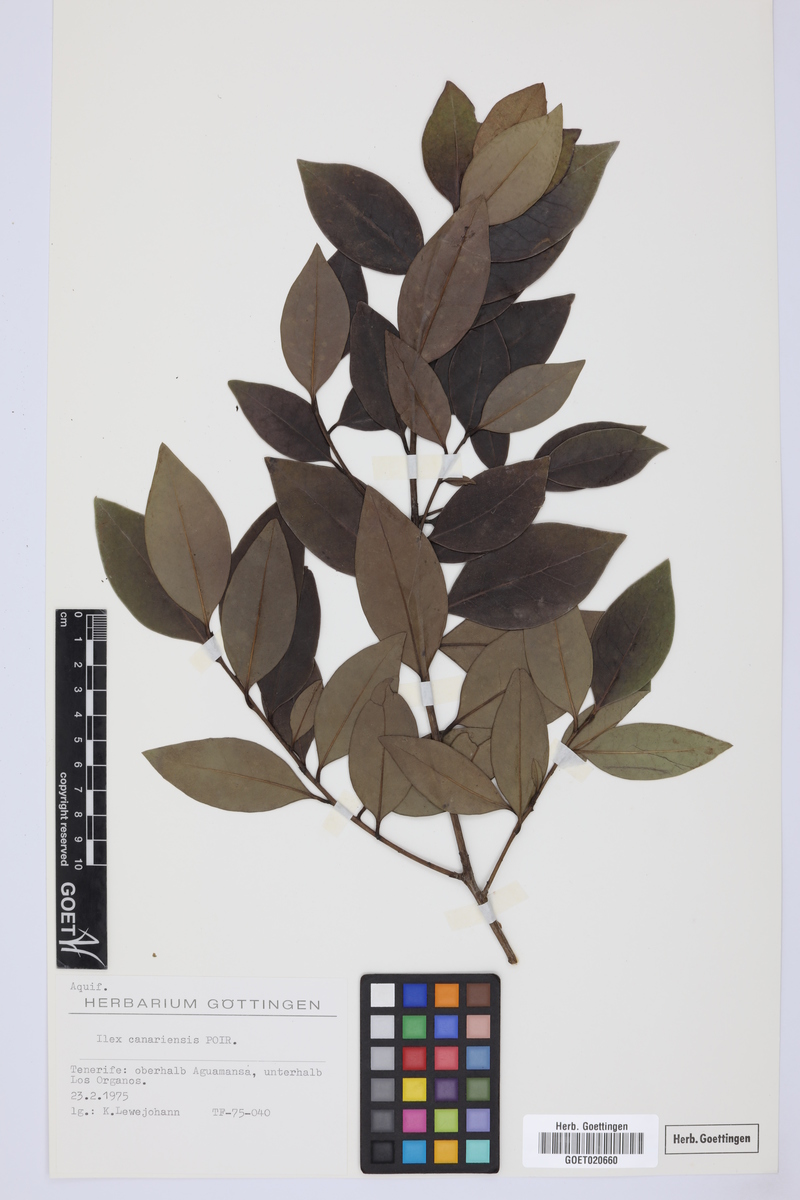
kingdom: Plantae
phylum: Tracheophyta
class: Magnoliopsida
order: Aquifoliales
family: Aquifoliaceae
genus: Ilex
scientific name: Ilex canariensis
